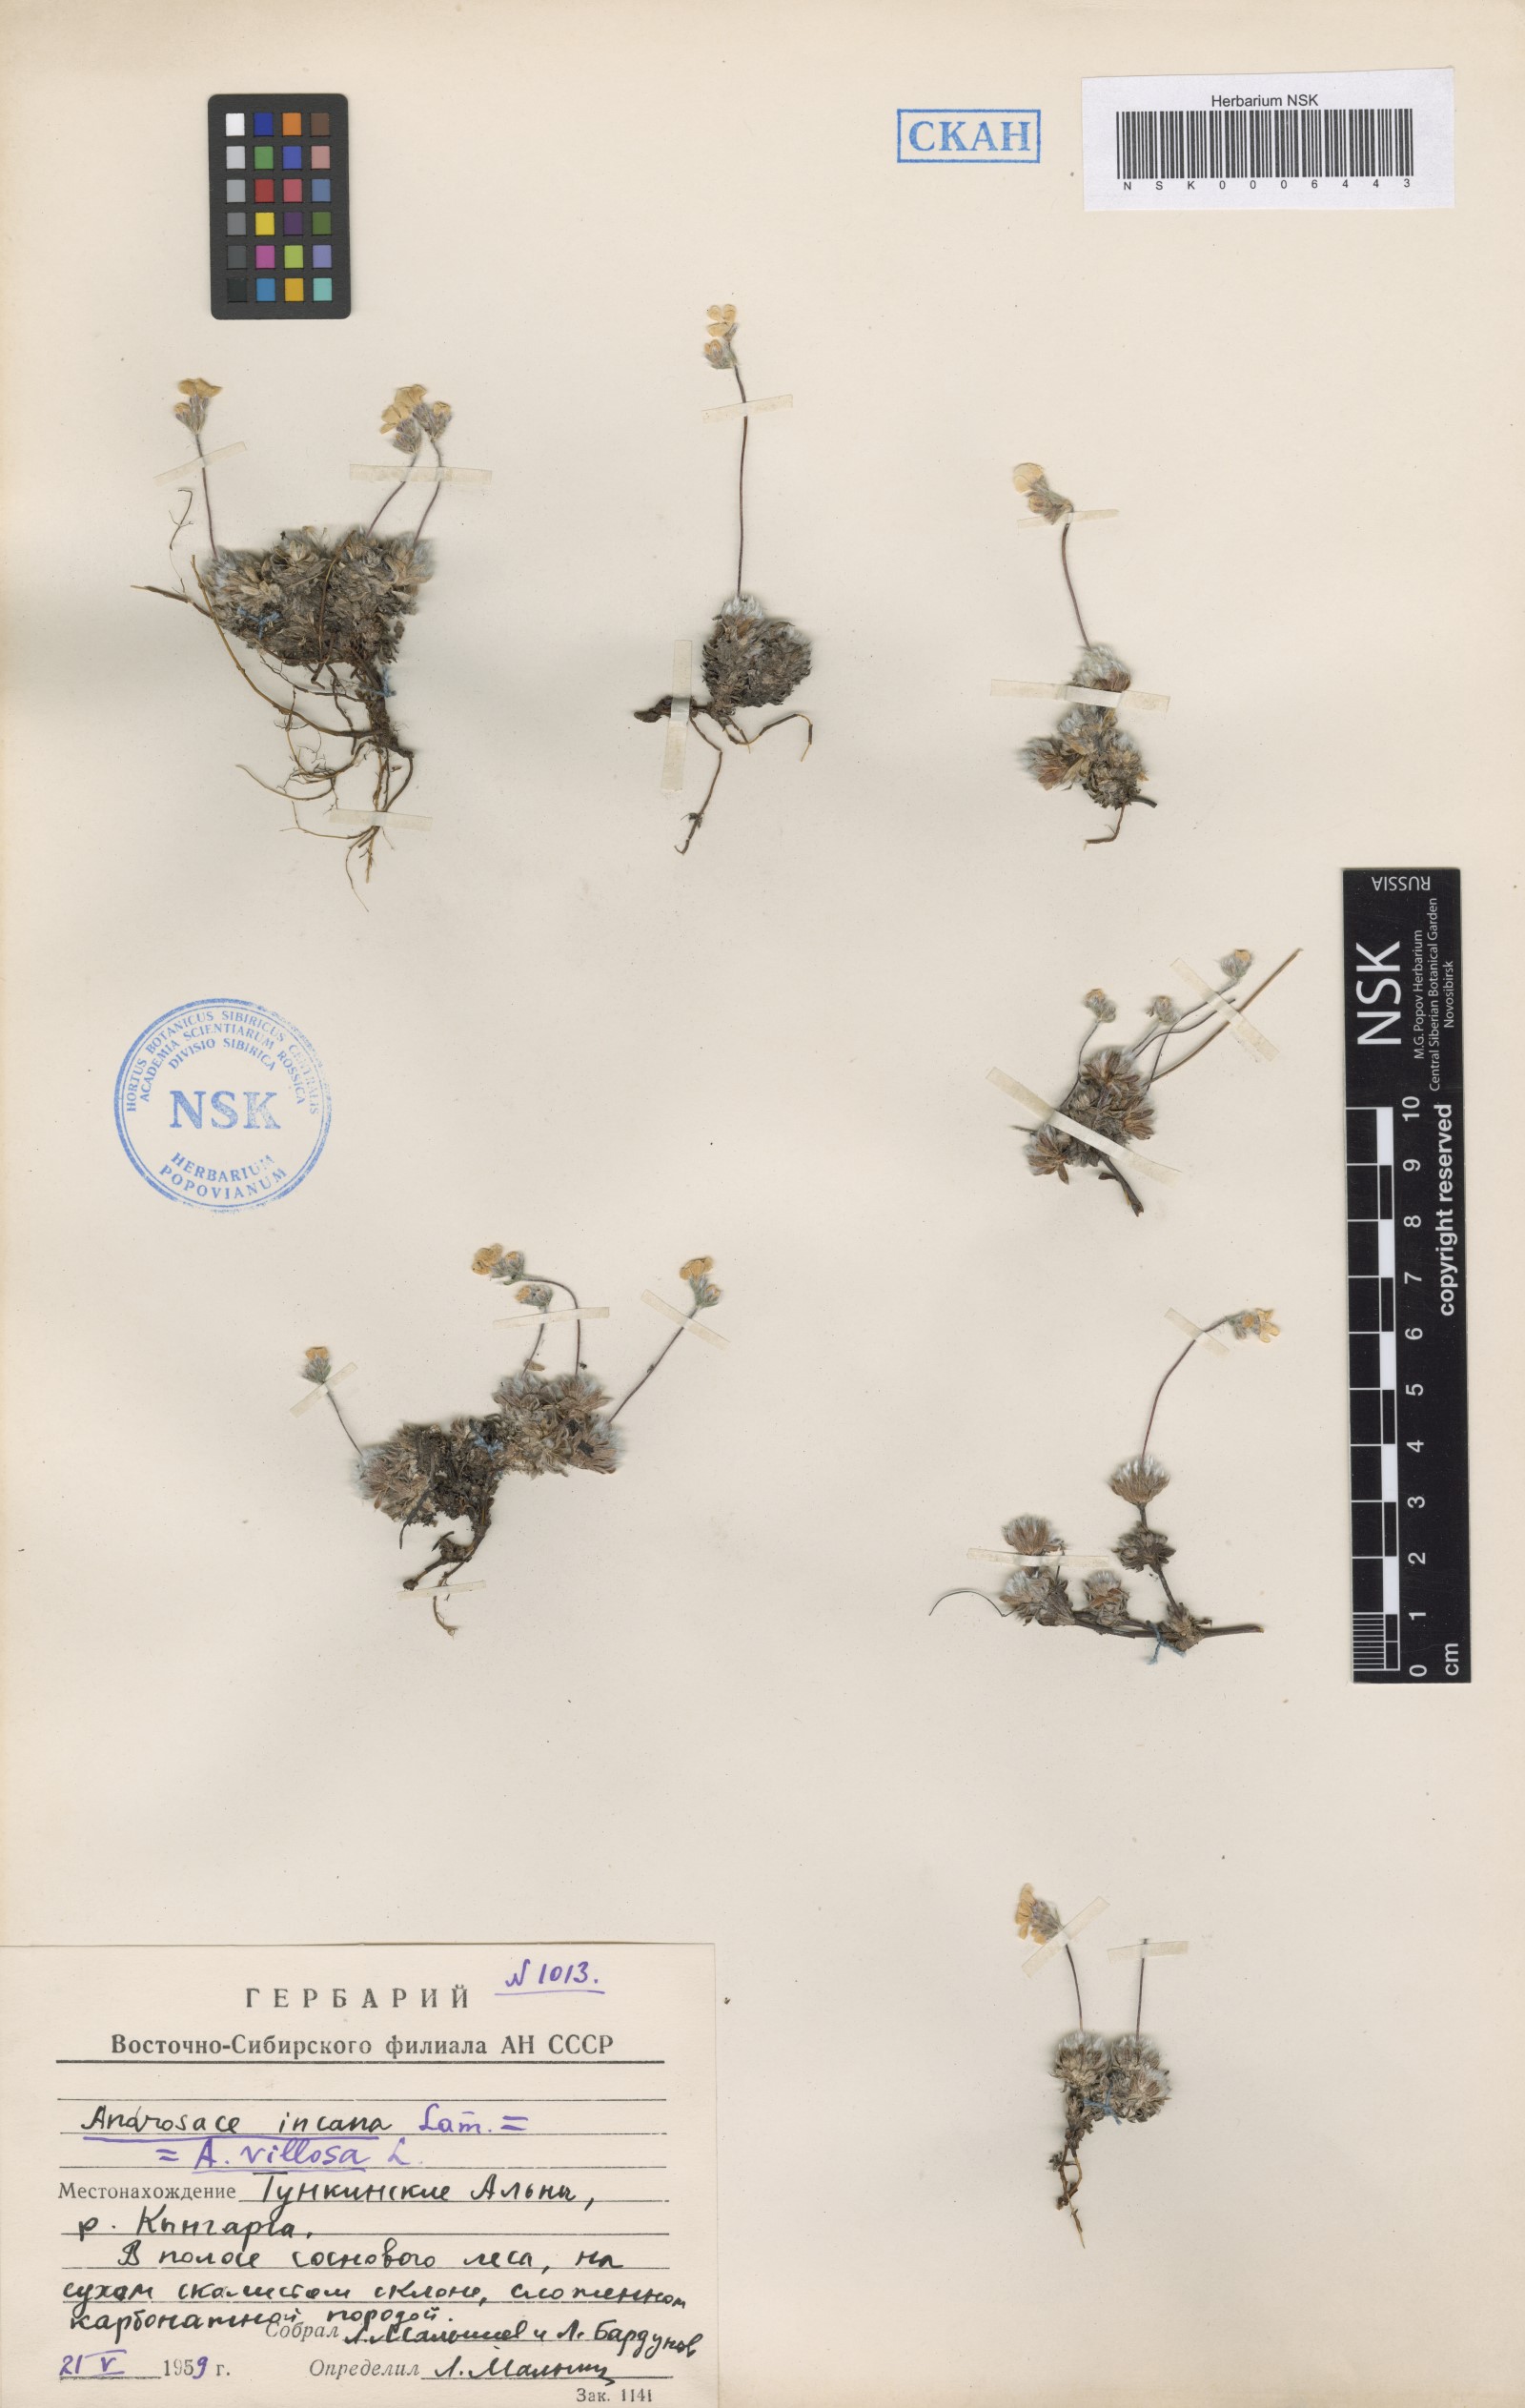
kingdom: Plantae
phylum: Tracheophyta
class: Magnoliopsida
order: Ericales
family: Primulaceae
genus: Androsace
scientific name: Androsace incana
